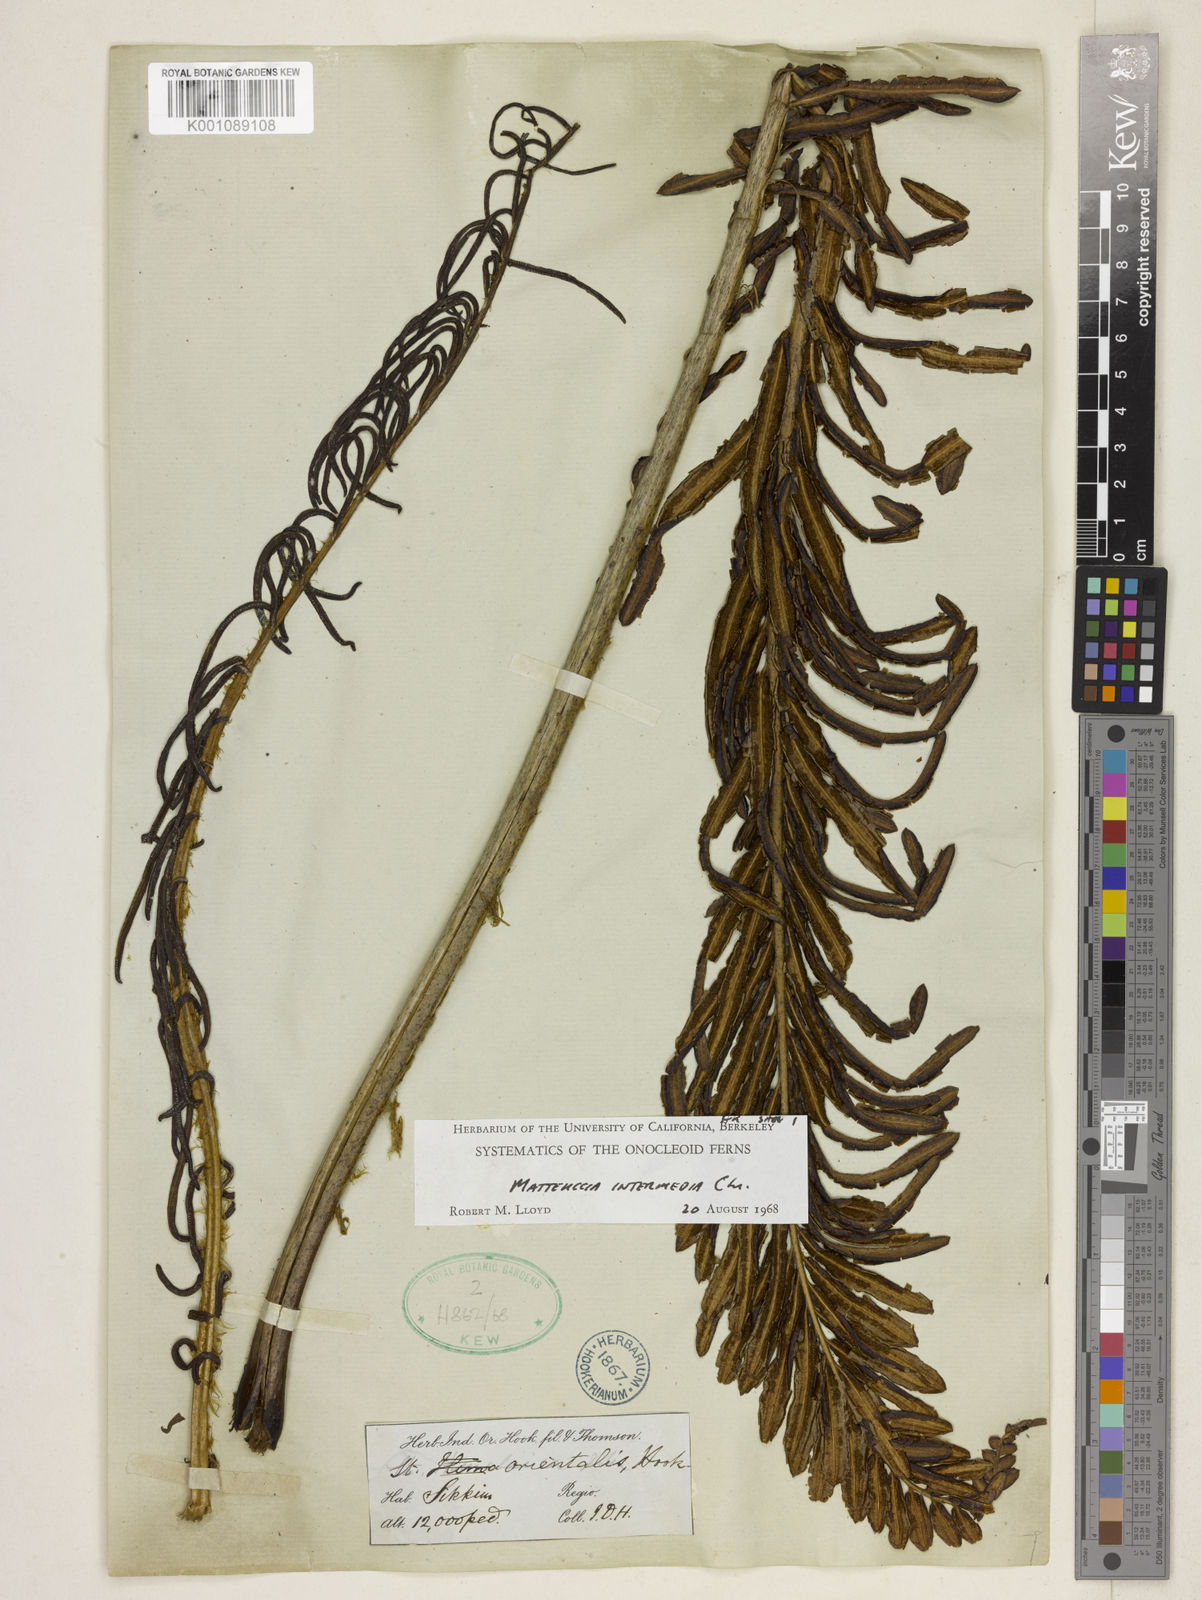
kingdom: Plantae
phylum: Tracheophyta
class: Polypodiopsida
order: Polypodiales
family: Onocleaceae
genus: Pentarhizidium
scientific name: Pentarhizidium intermedium
